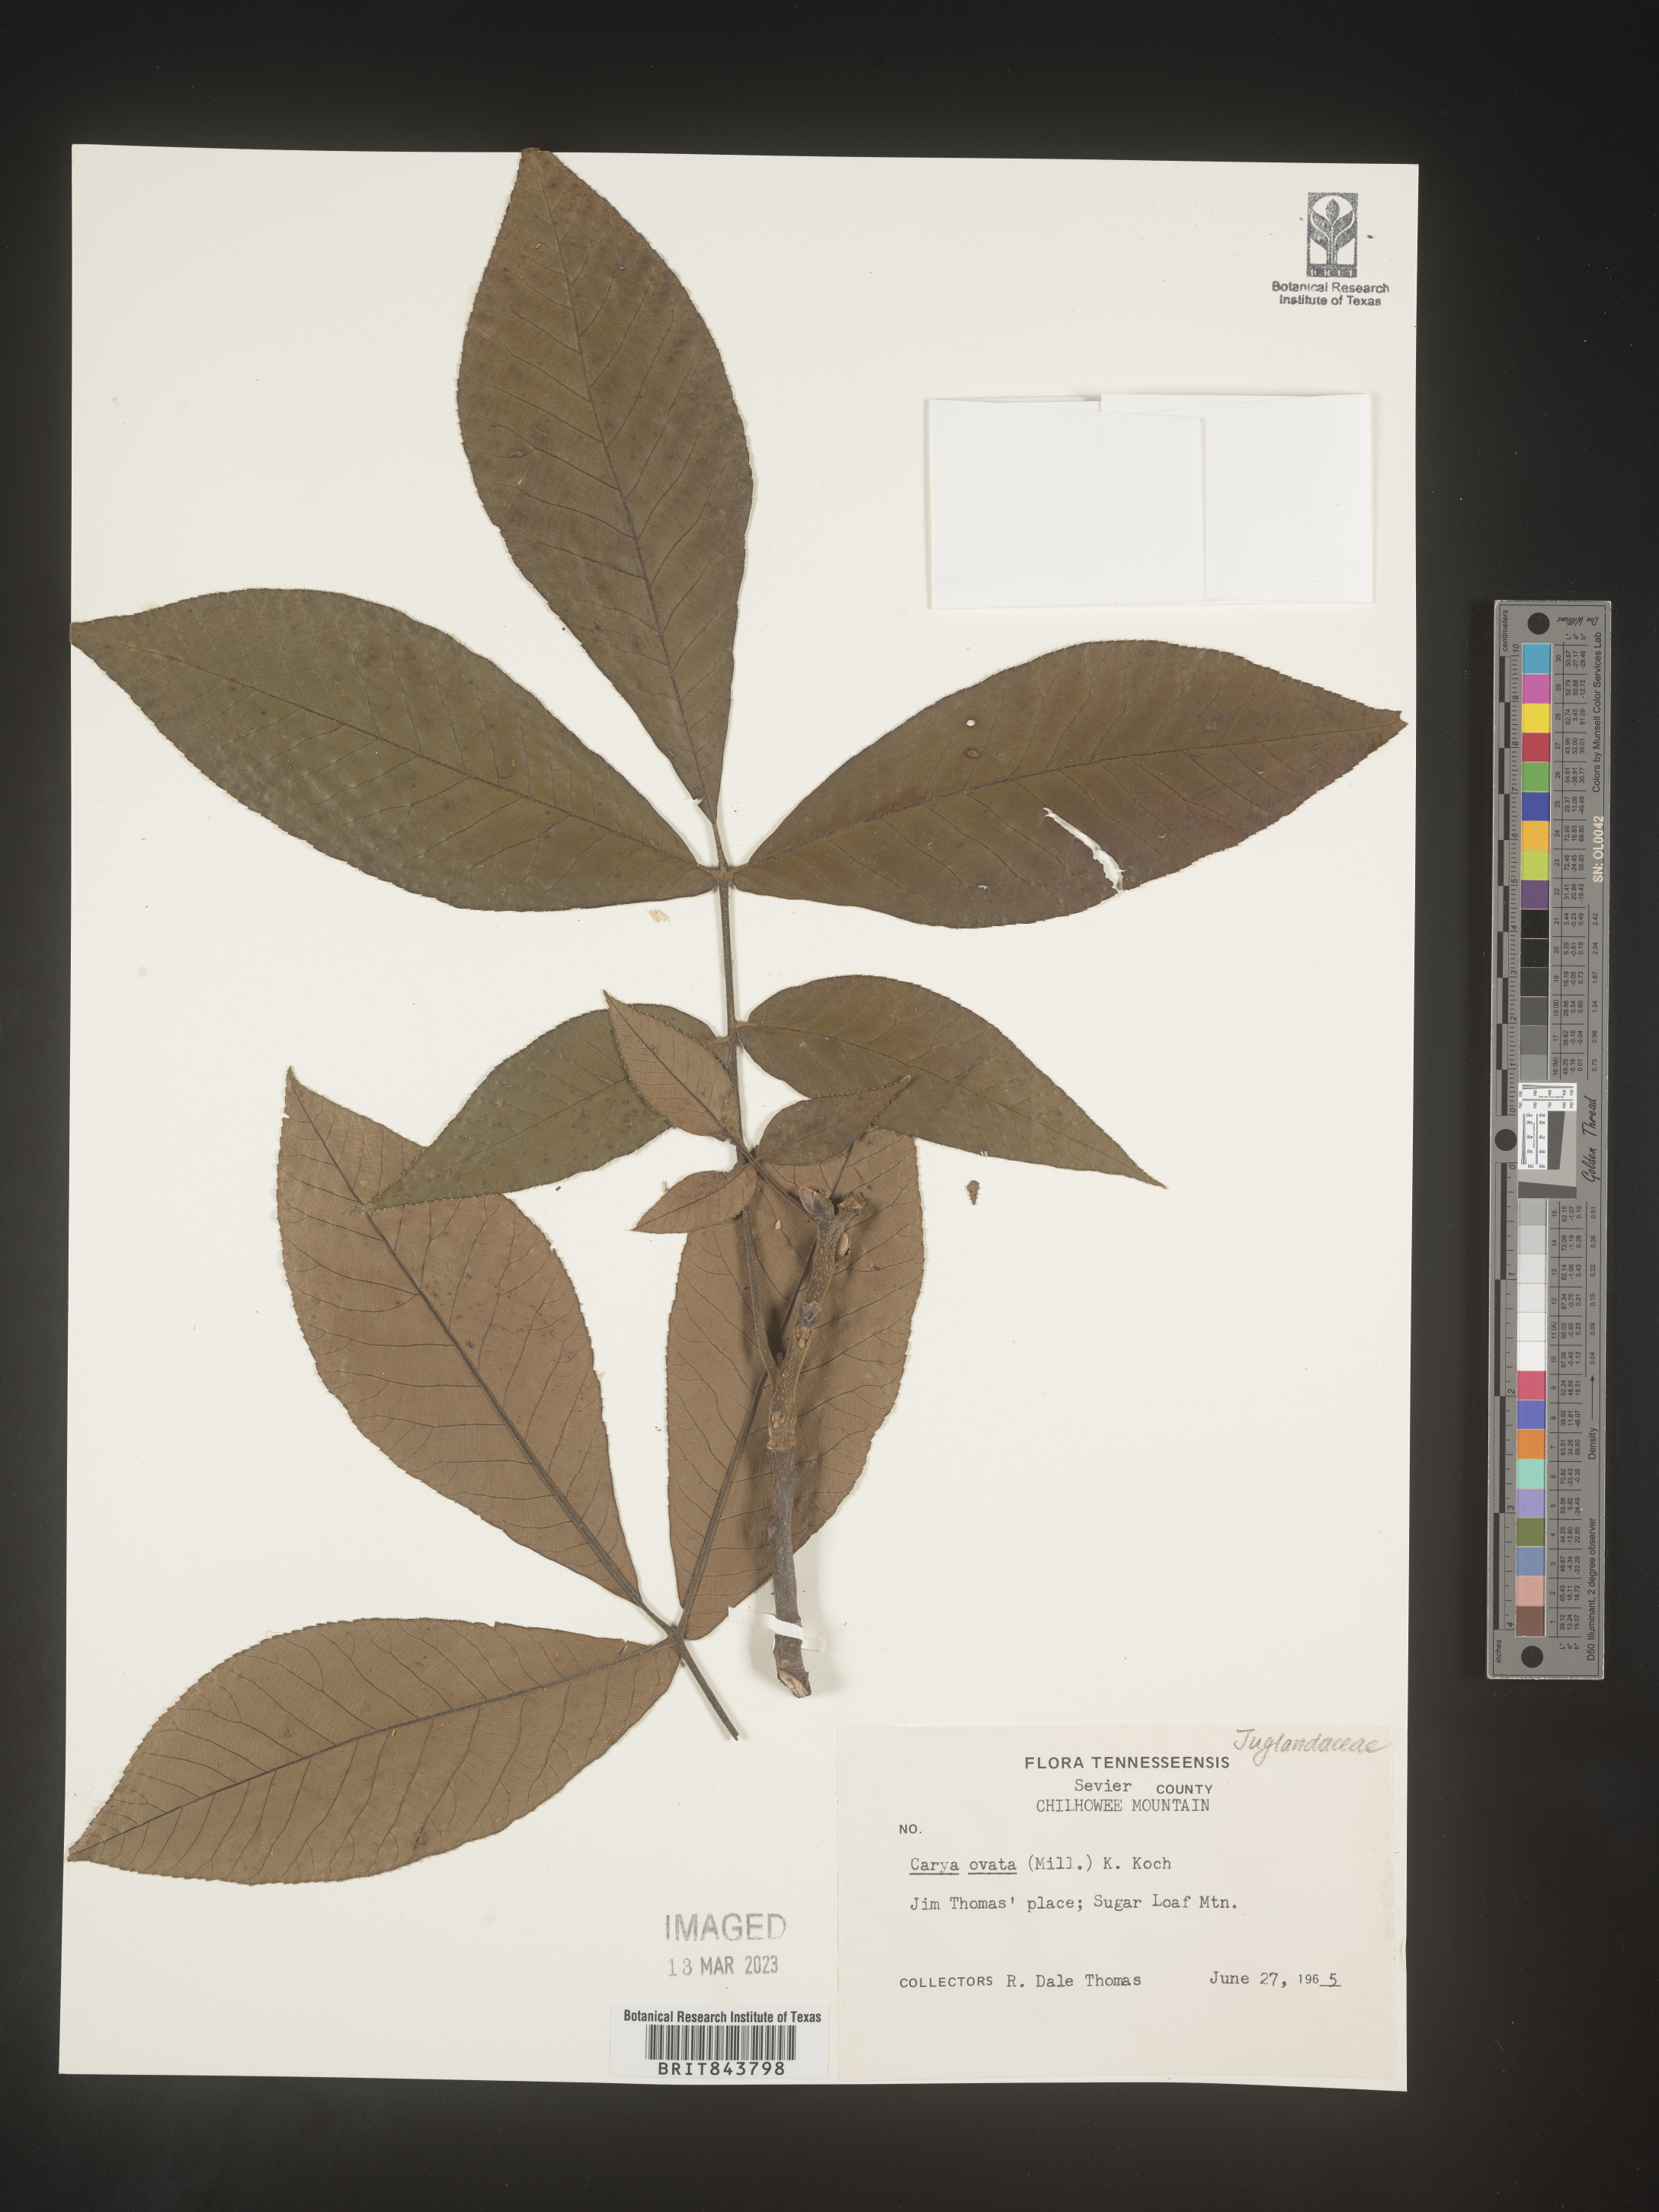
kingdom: Plantae
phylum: Tracheophyta
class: Magnoliopsida
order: Fagales
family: Juglandaceae
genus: Carya
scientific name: Carya ovata
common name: Shagbark hickory
